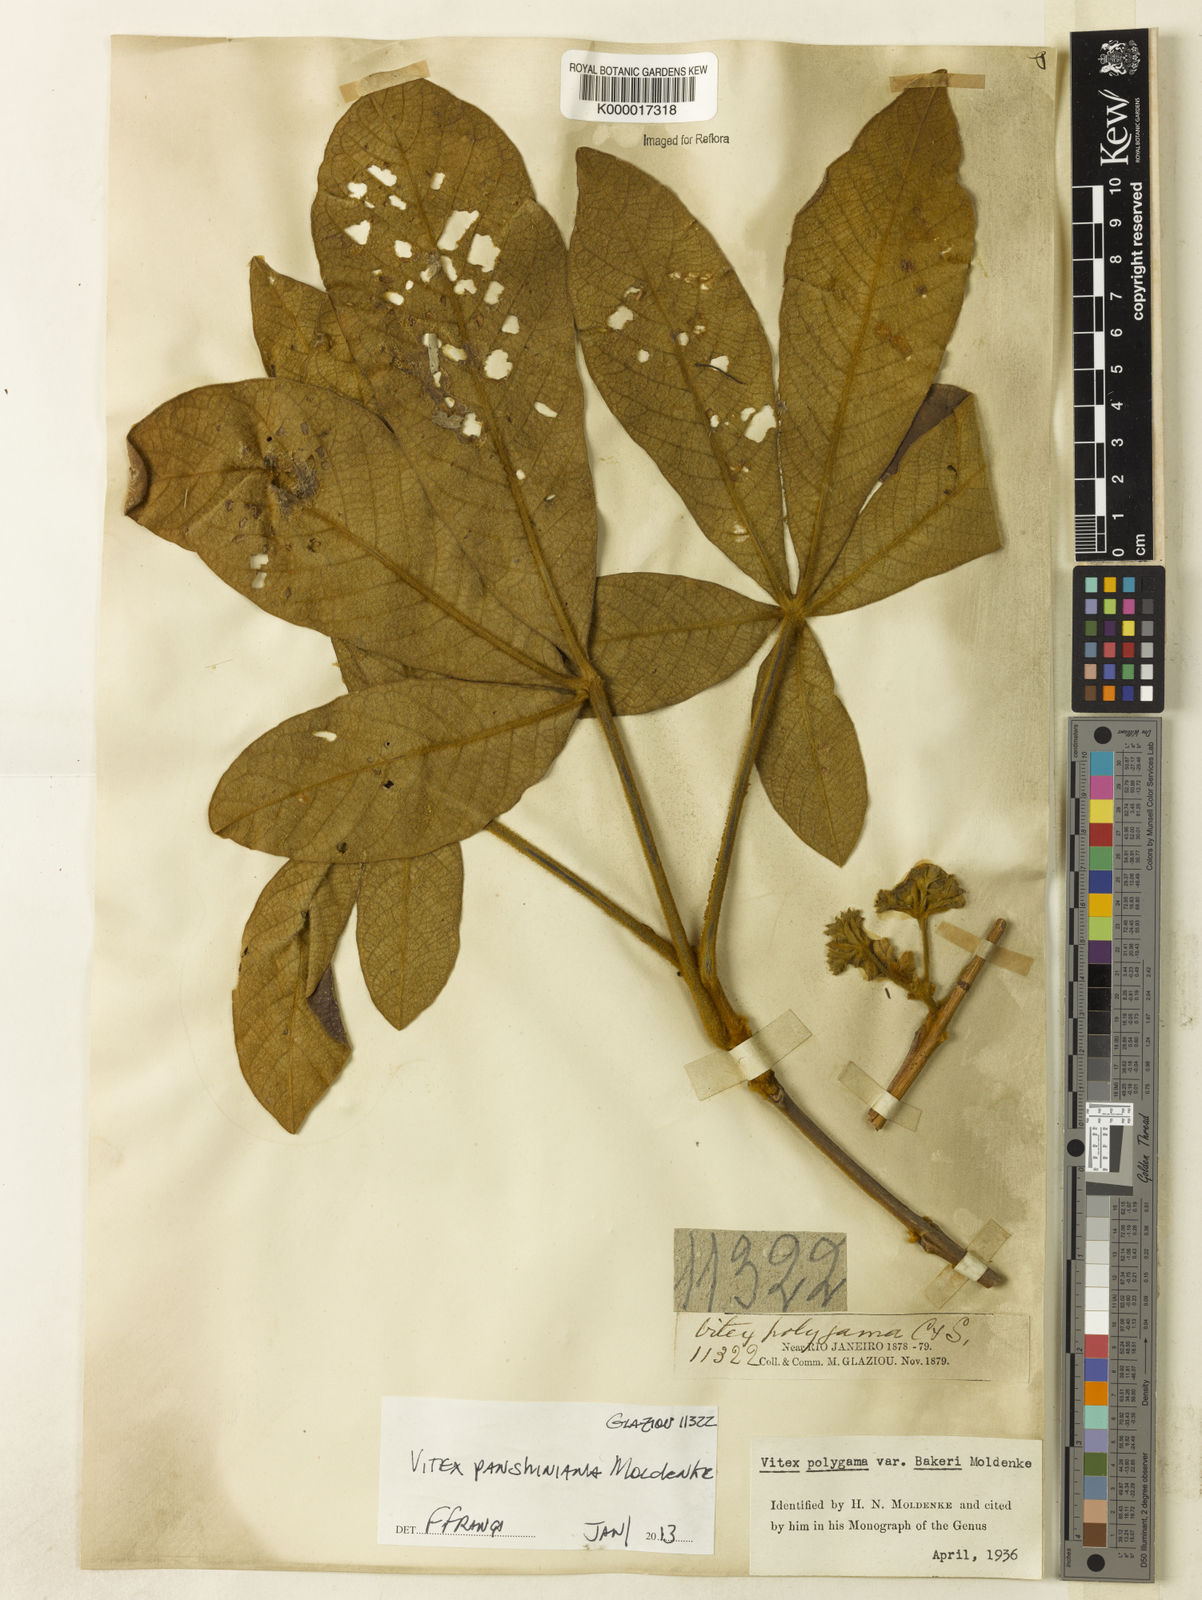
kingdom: Plantae
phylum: Tracheophyta
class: Magnoliopsida
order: Lamiales
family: Lamiaceae
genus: Vitex
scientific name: Vitex panshiniana
